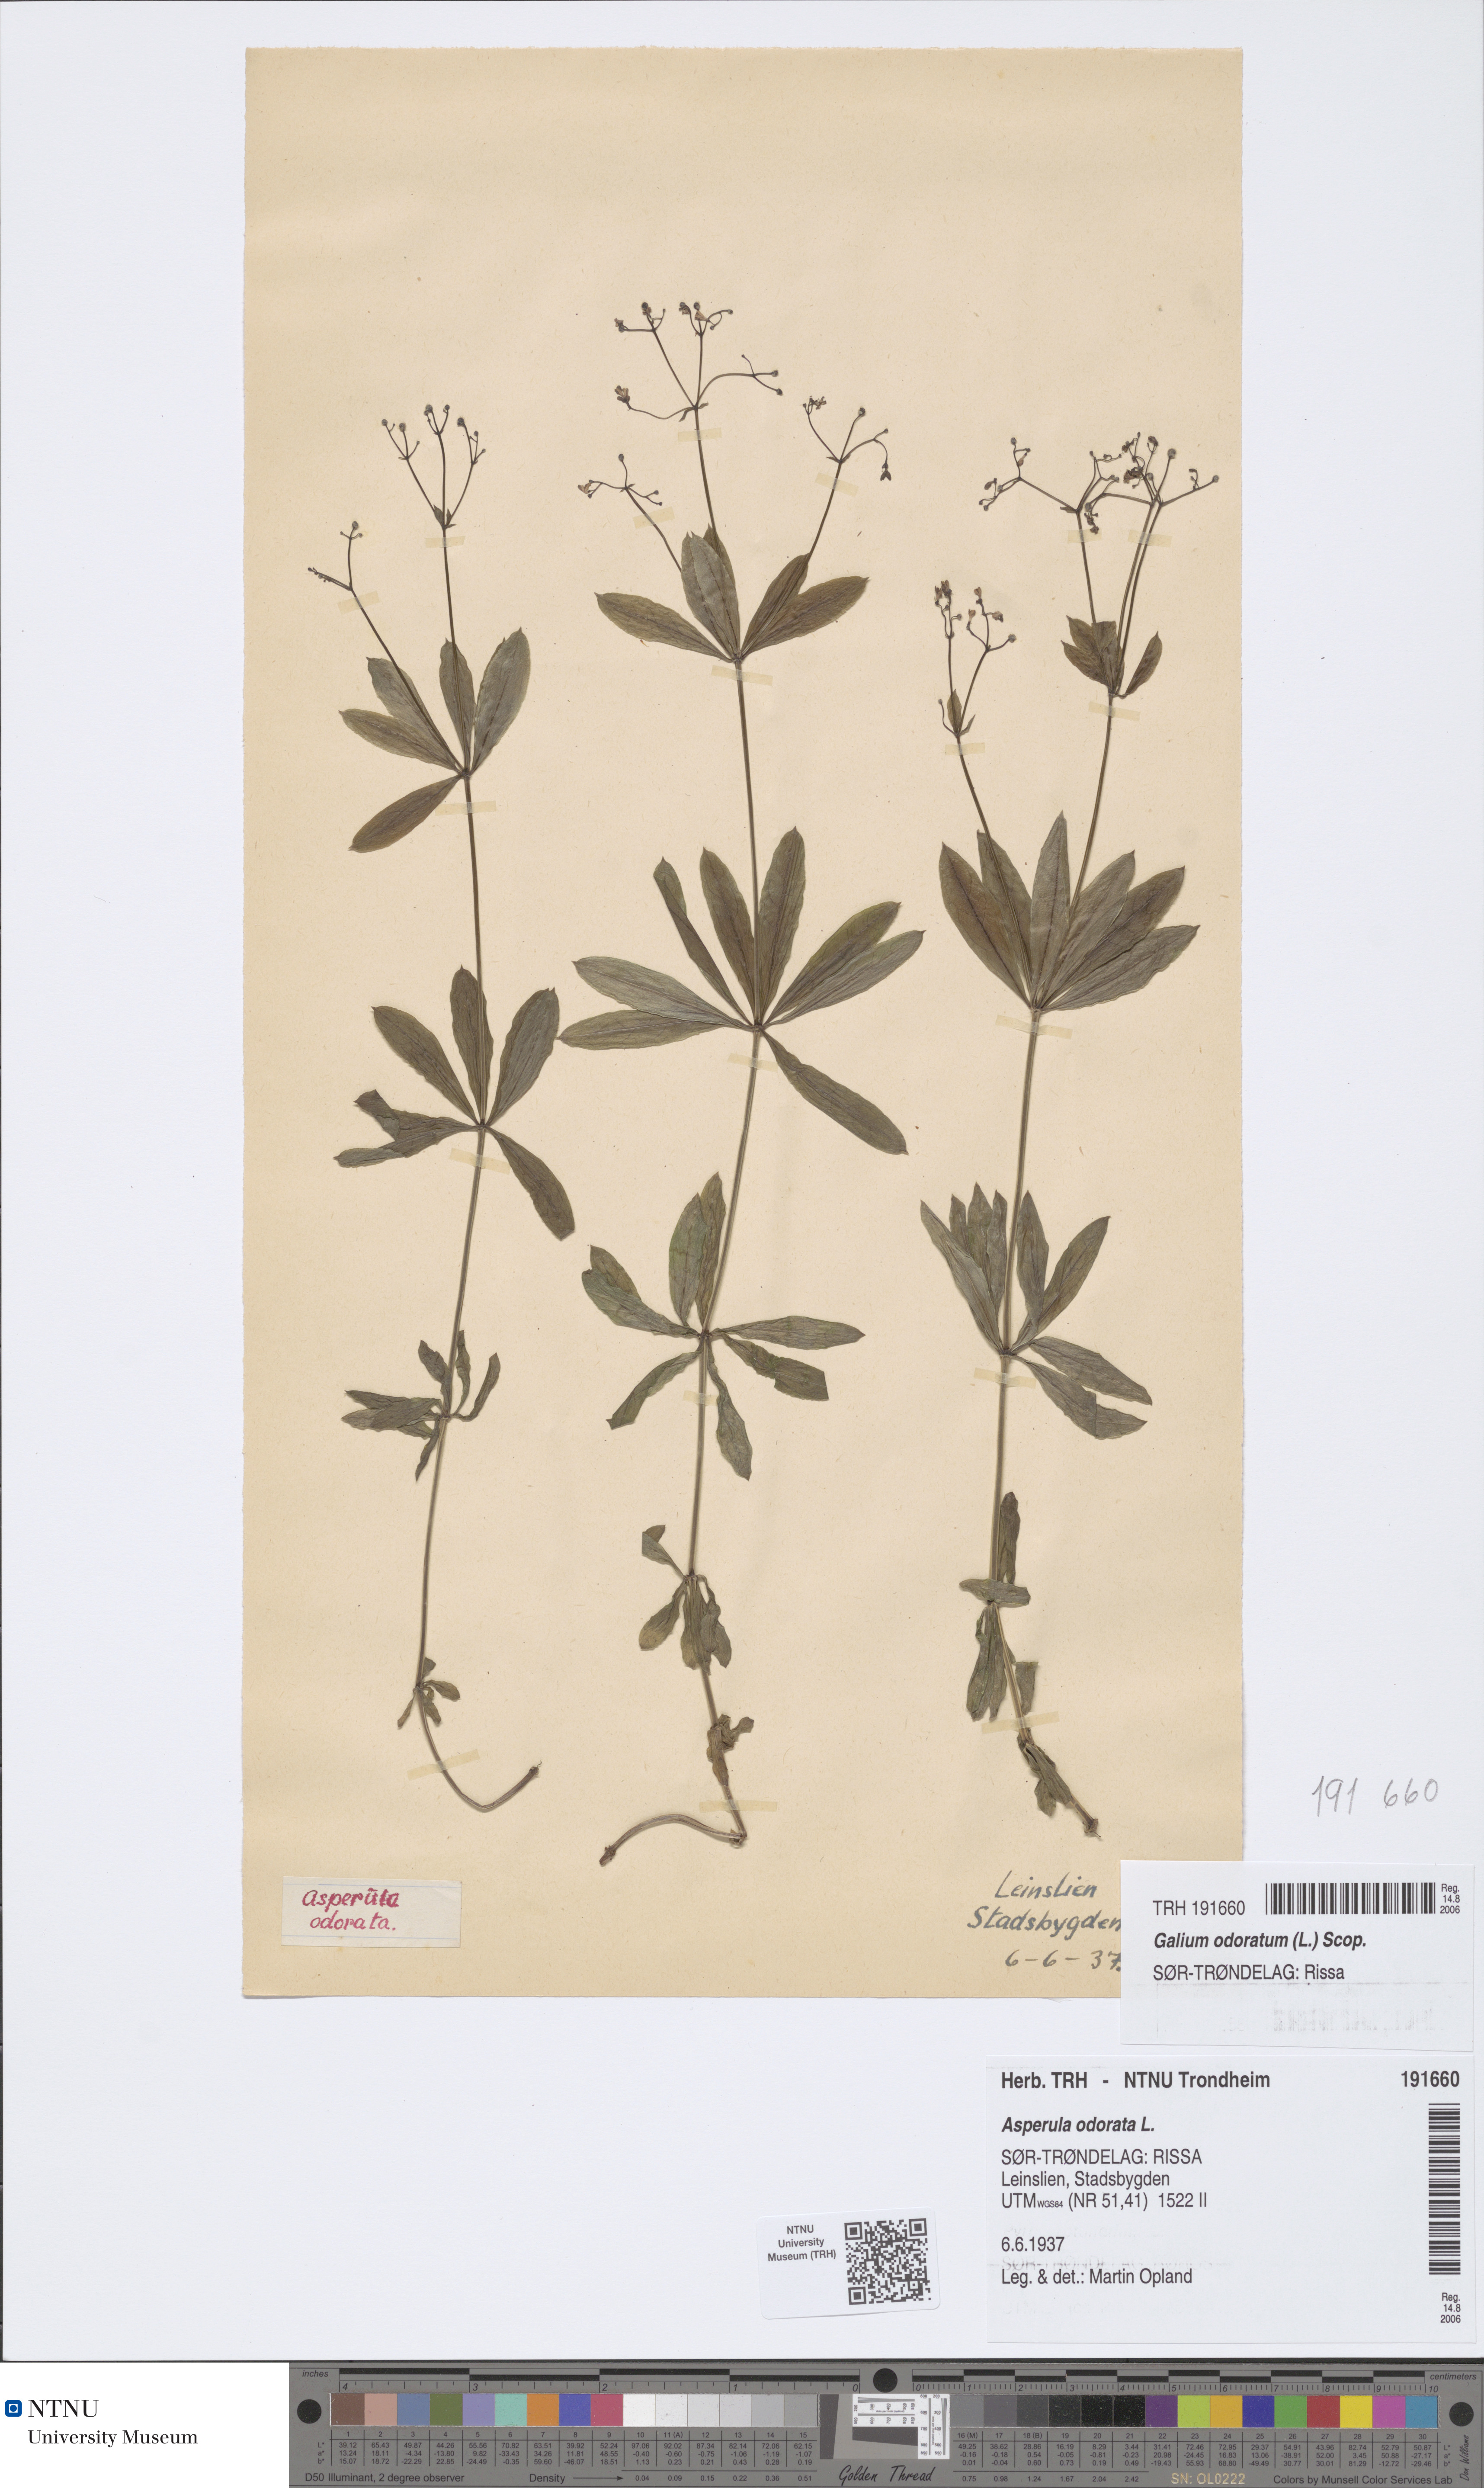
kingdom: Plantae
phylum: Tracheophyta
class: Magnoliopsida
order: Gentianales
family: Rubiaceae
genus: Galium
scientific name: Galium odoratum
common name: Sweet woodruff
